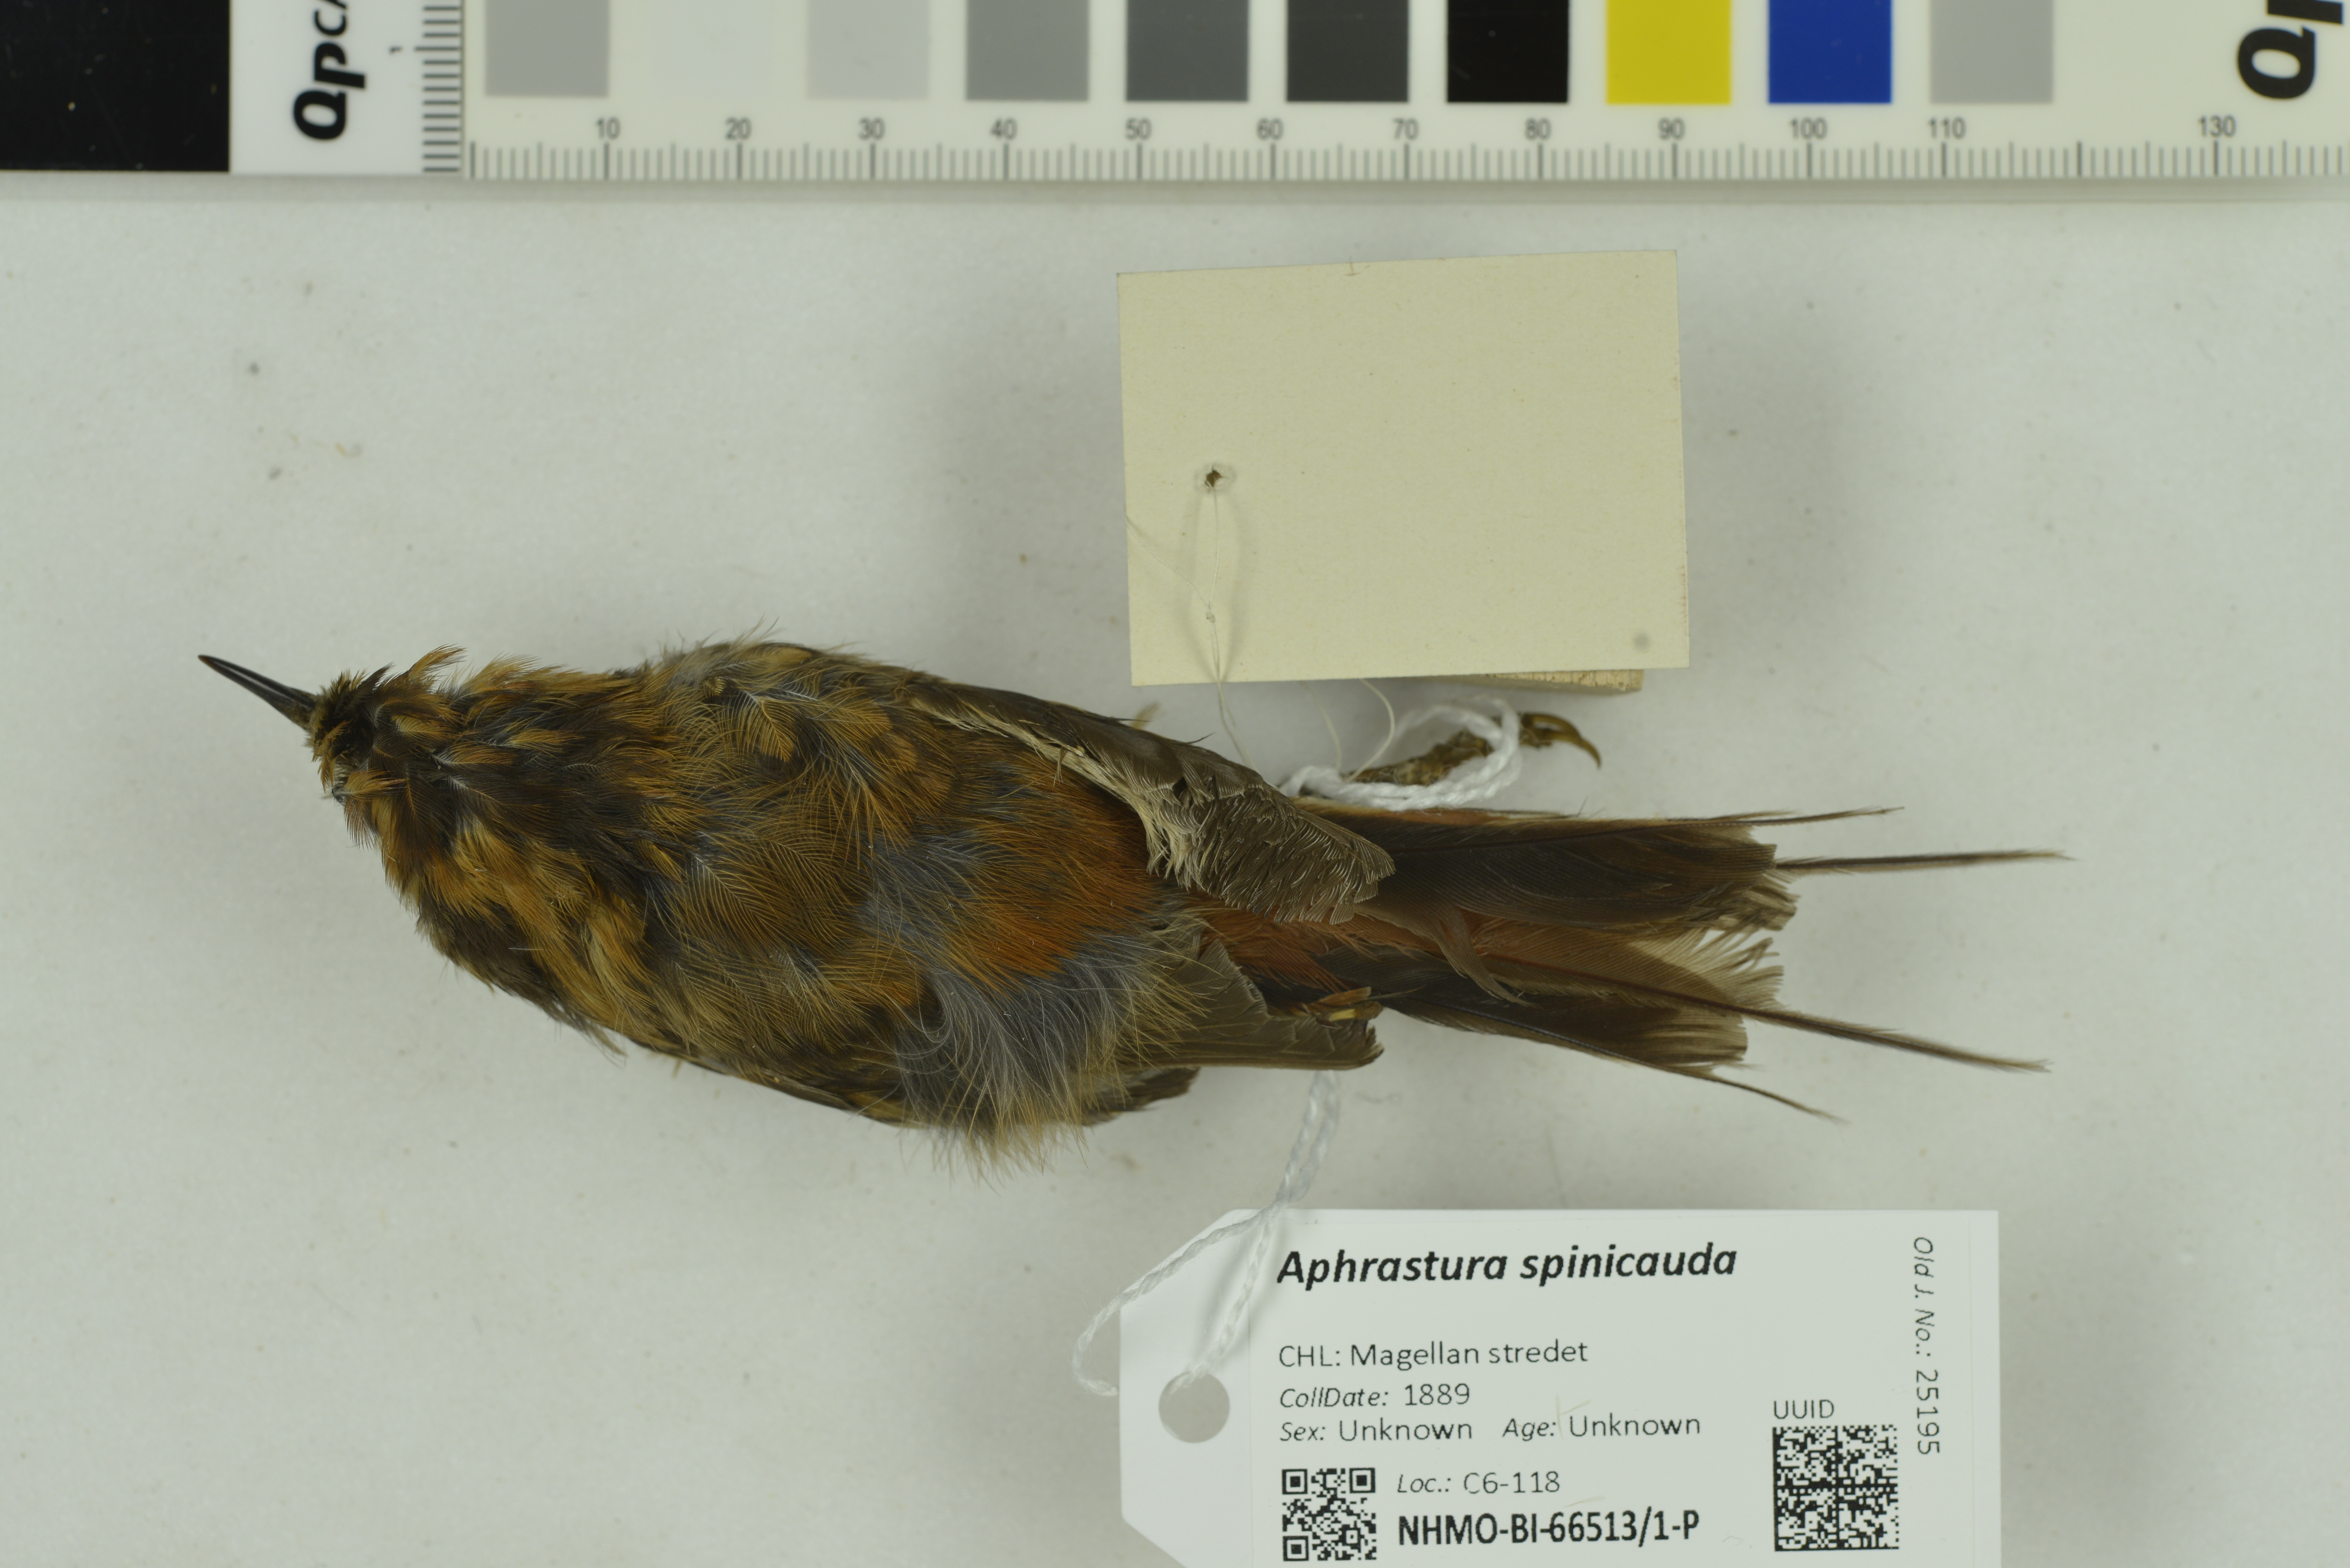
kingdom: Animalia
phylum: Chordata
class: Aves
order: Passeriformes
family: Furnariidae
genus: Aphrastura
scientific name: Aphrastura spinicauda
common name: Thorn-tailed rayadito
